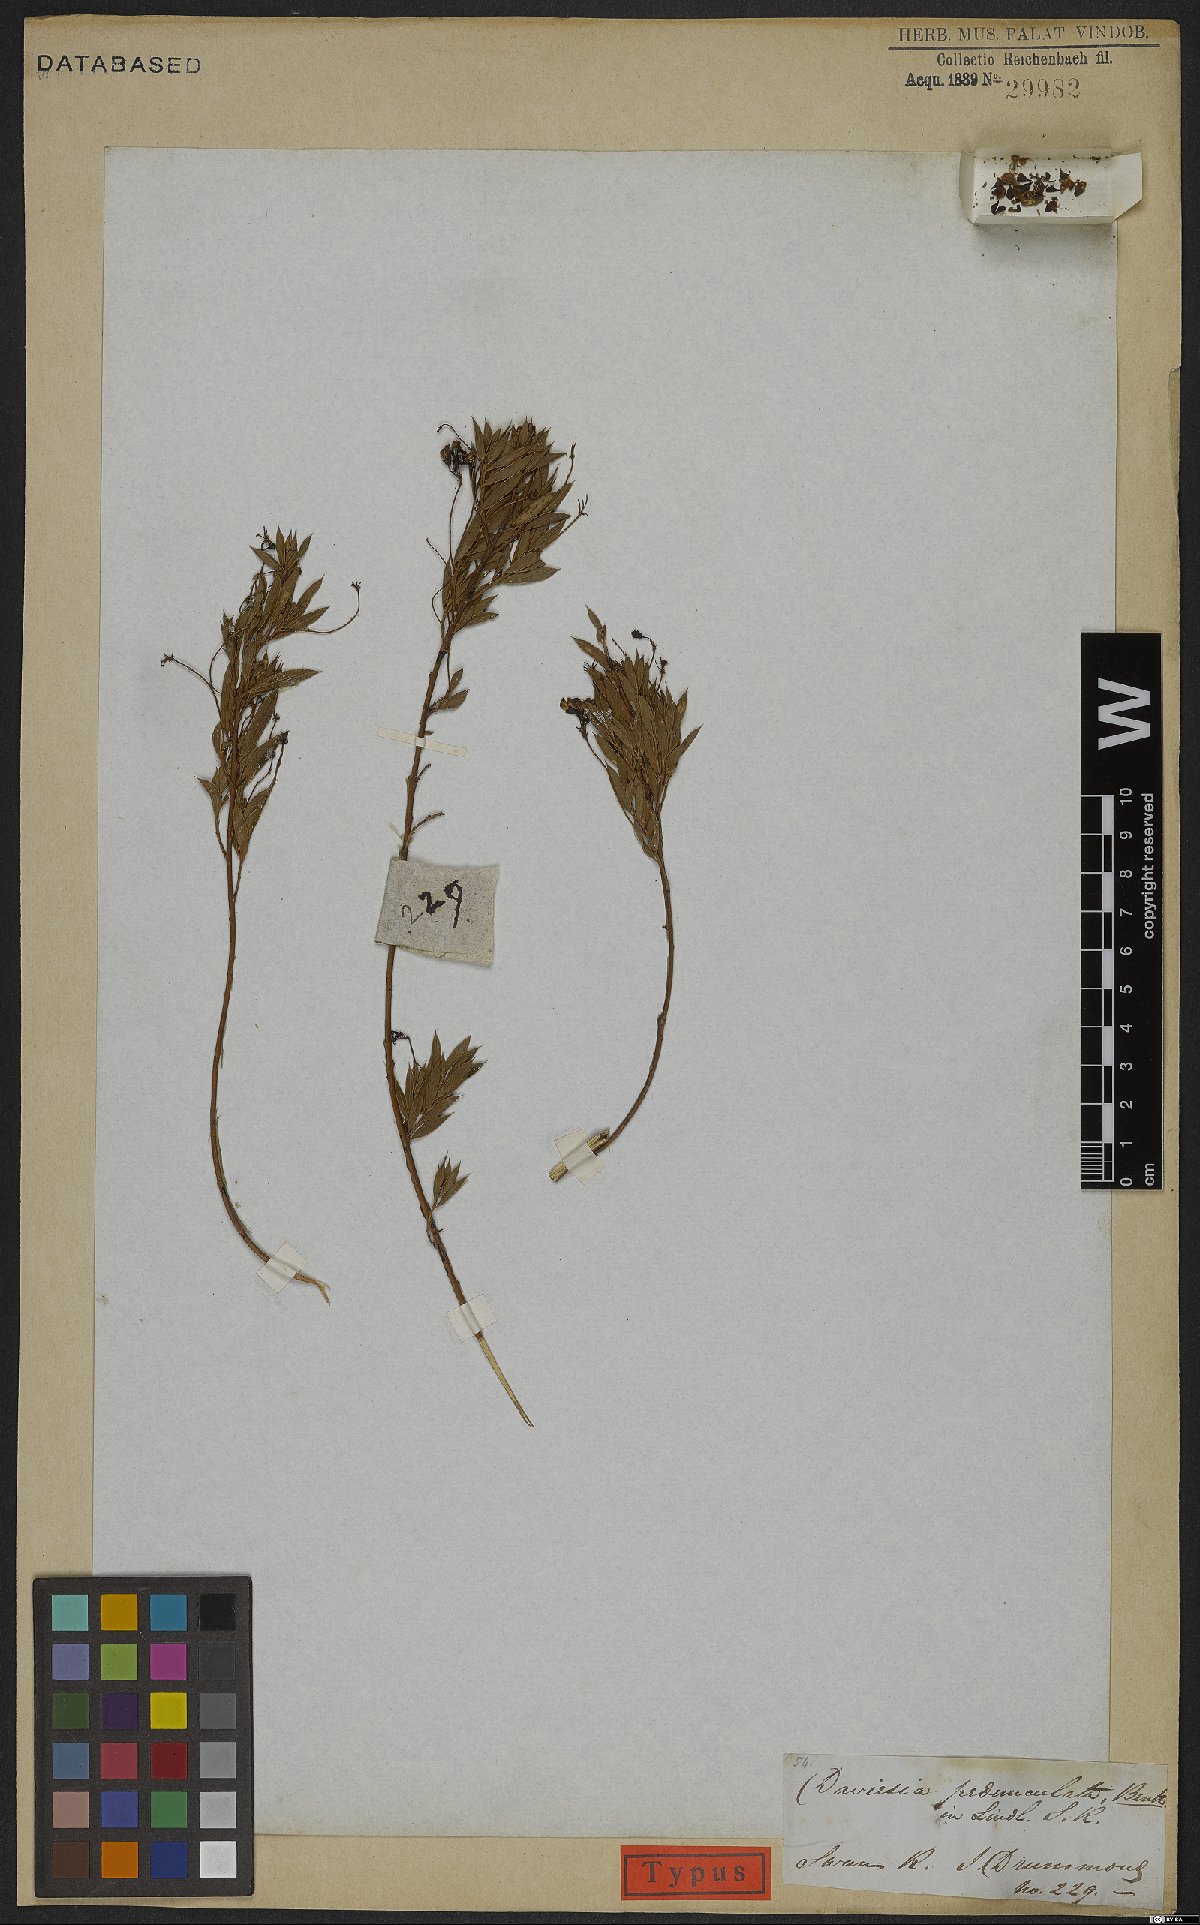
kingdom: Plantae
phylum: Tracheophyta
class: Magnoliopsida
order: Fabales
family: Fabaceae
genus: Daviesia
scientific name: Daviesia pedunculata
